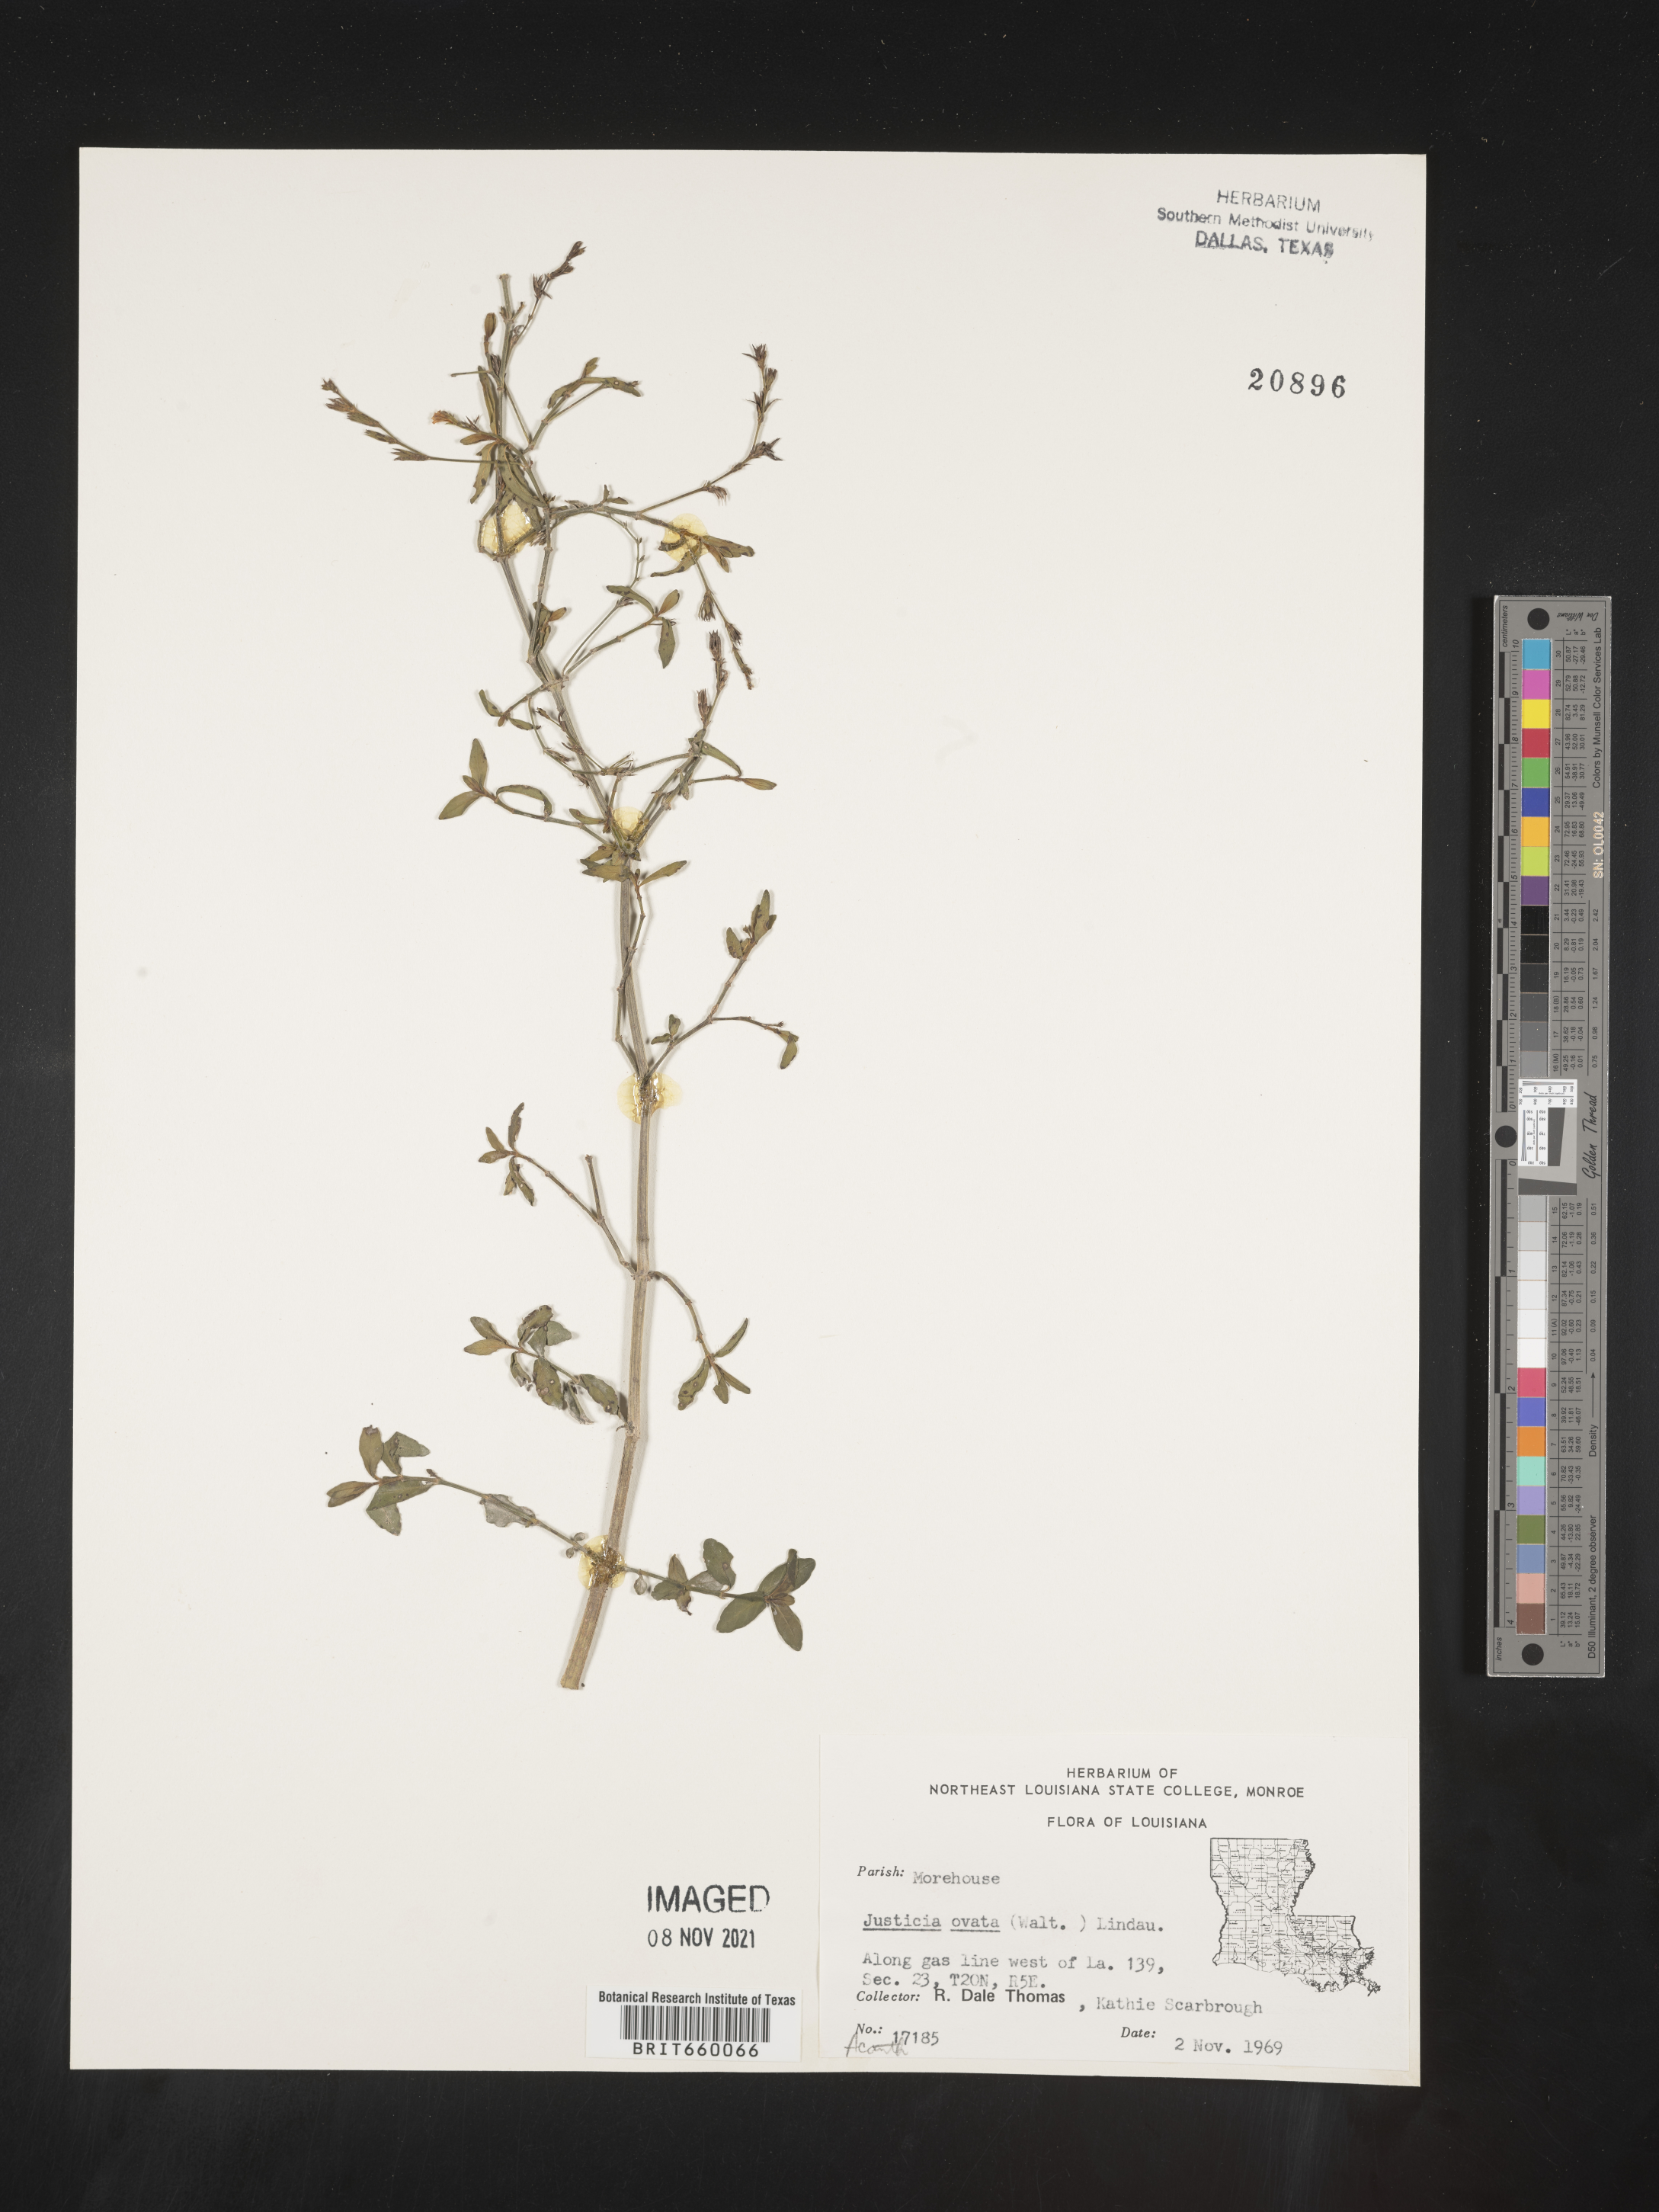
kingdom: Plantae
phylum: Tracheophyta
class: Magnoliopsida
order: Lamiales
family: Acanthaceae
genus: Dianthera
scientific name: Dianthera ovata
